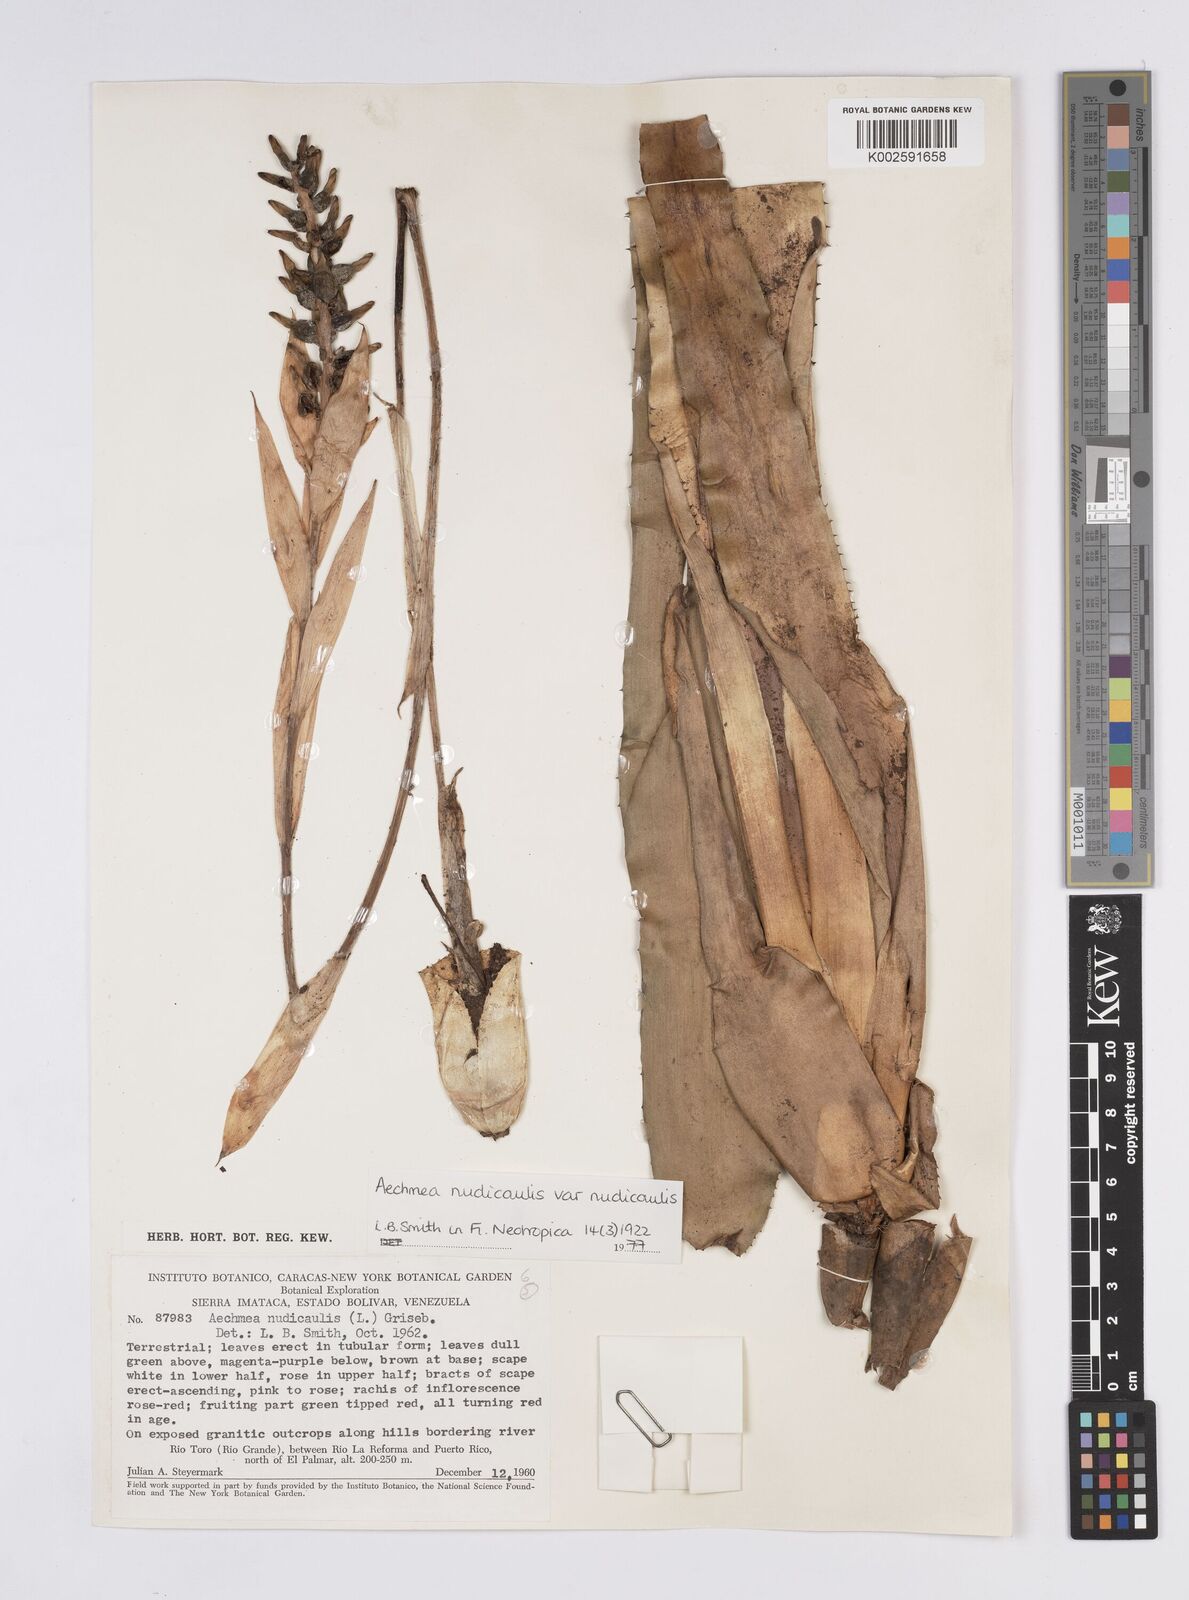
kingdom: Plantae
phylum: Tracheophyta
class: Liliopsida
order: Poales
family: Bromeliaceae
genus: Aechmea
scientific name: Aechmea nudicaulis
